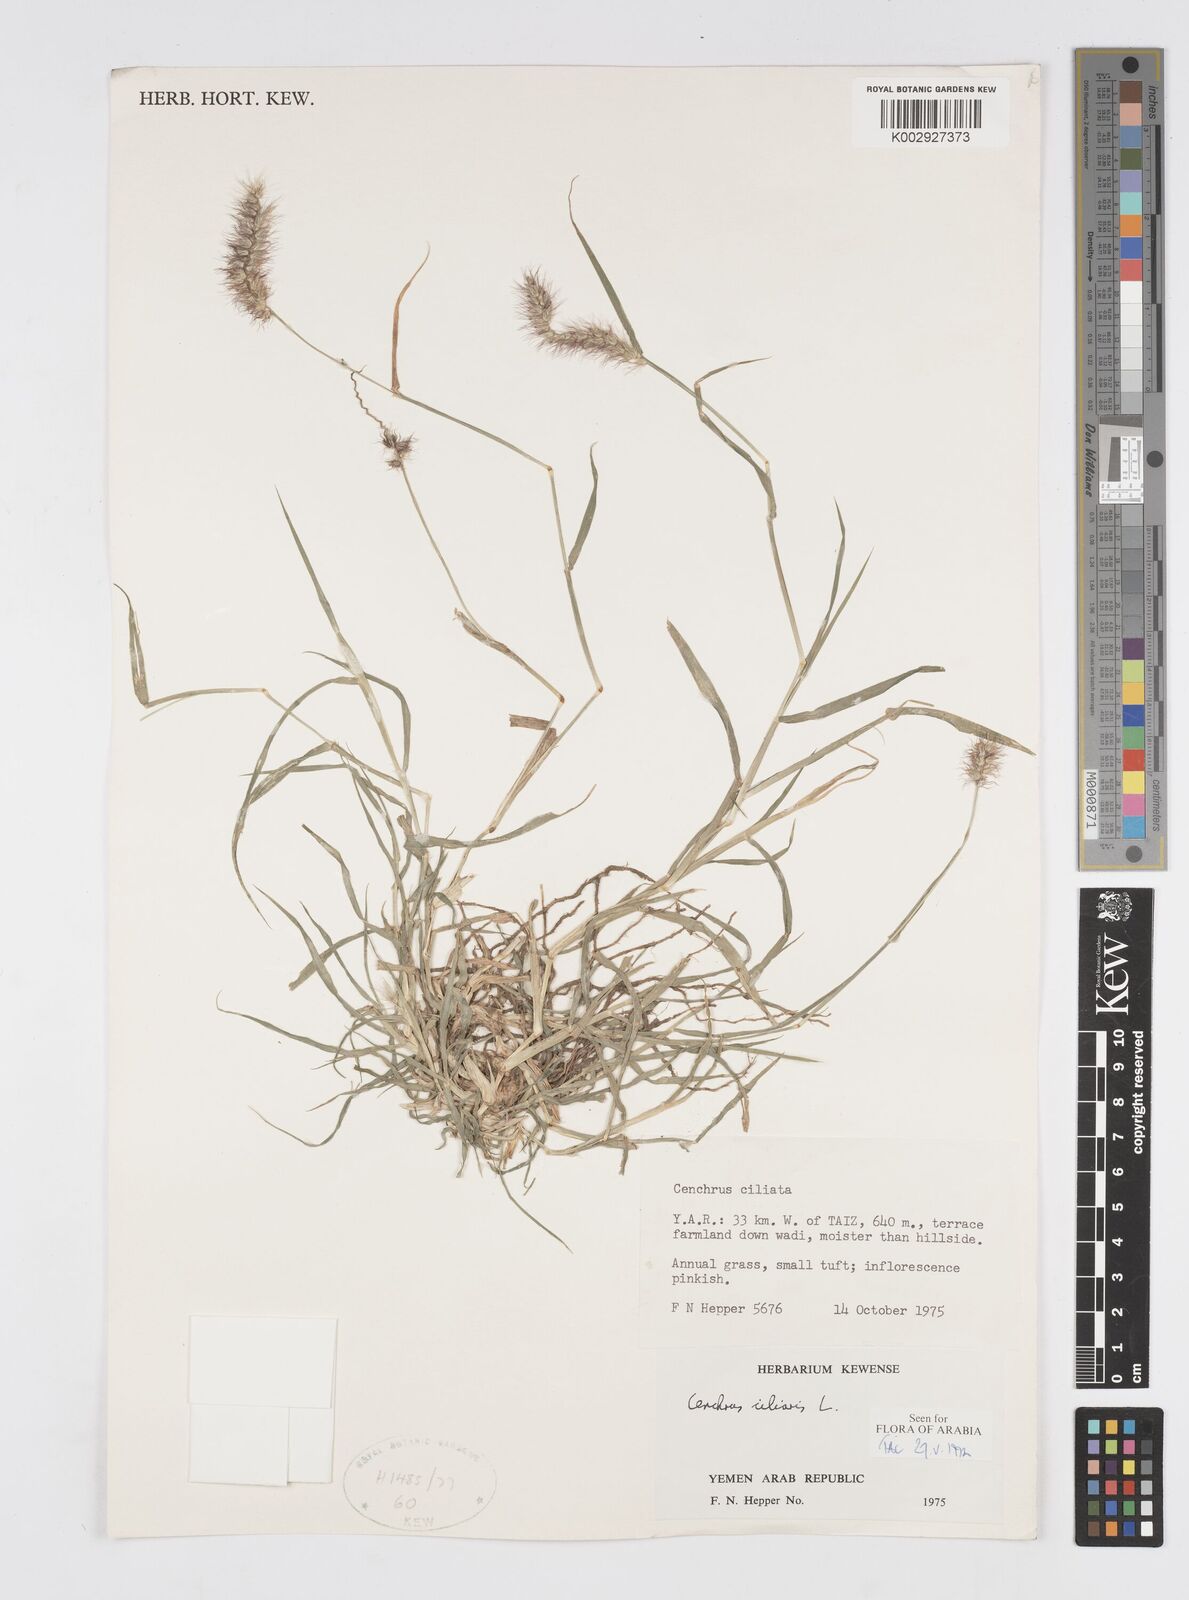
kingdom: Plantae
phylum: Tracheophyta
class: Liliopsida
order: Poales
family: Poaceae
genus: Cenchrus
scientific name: Cenchrus ciliaris
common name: Buffelgrass
